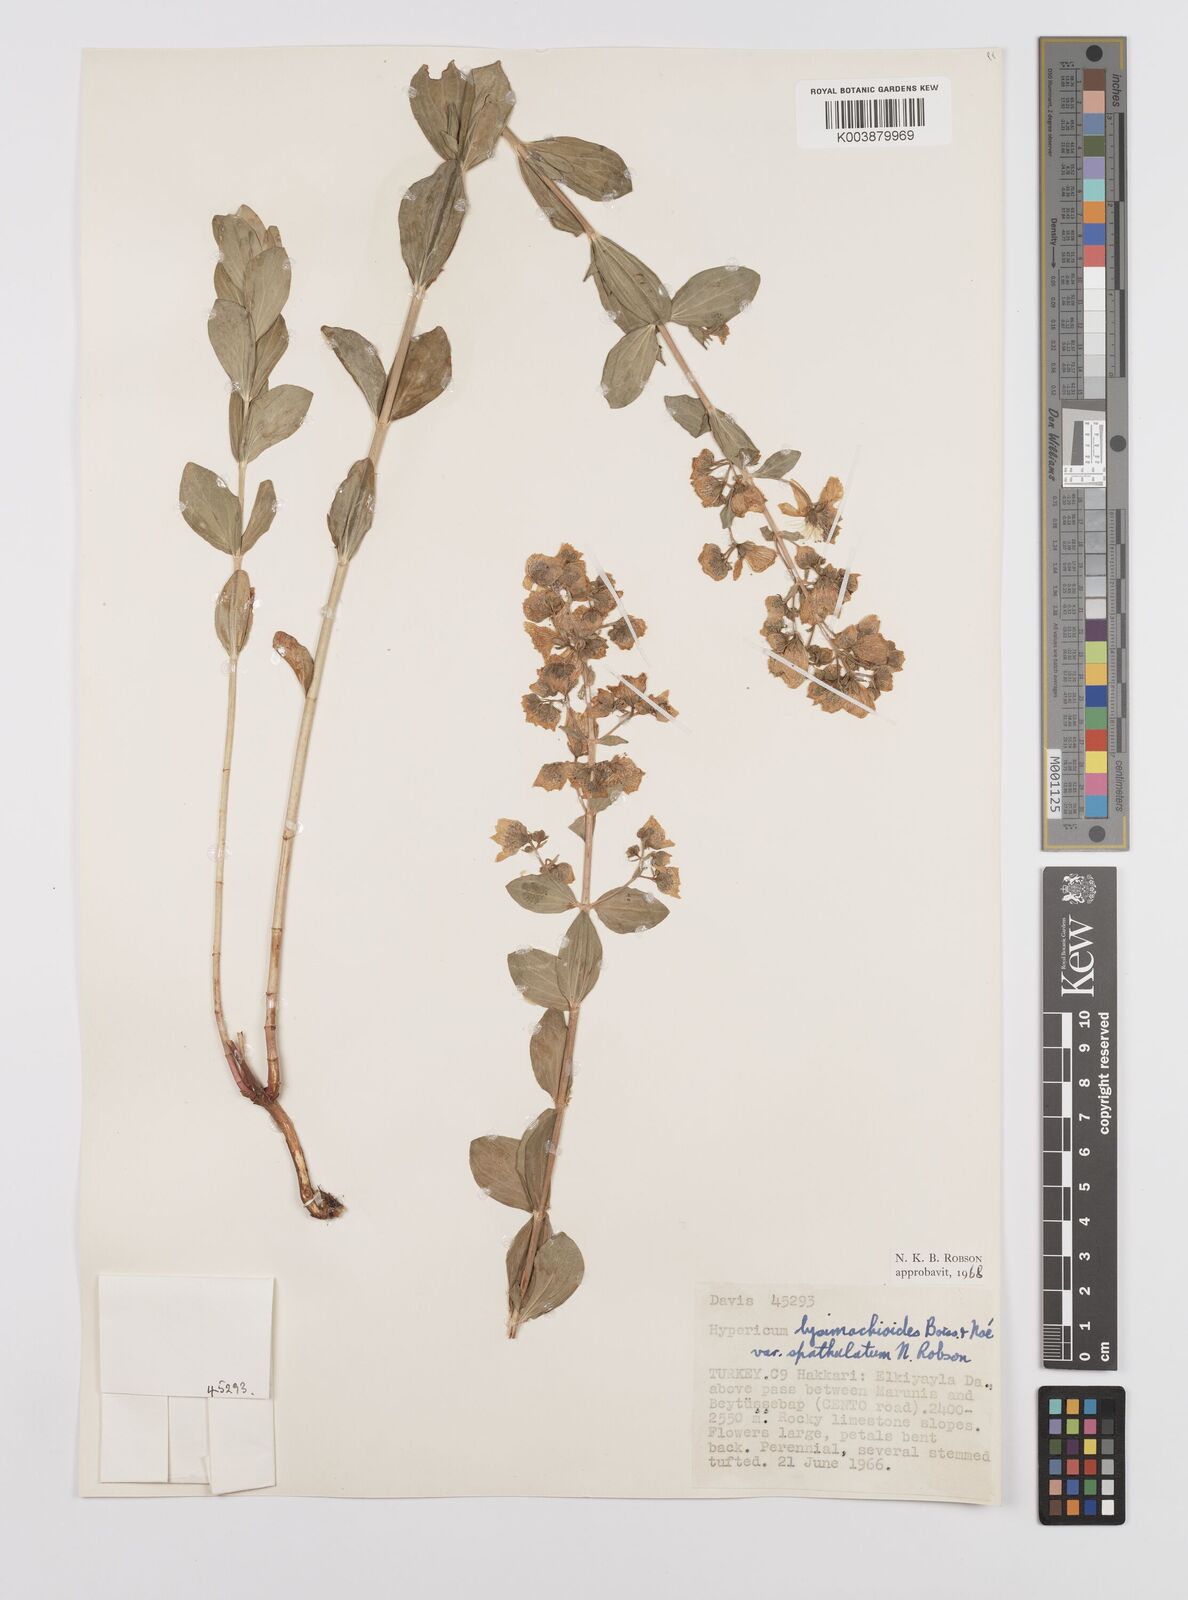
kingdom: Plantae
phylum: Tracheophyta
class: Magnoliopsida
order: Malpighiales
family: Hypericaceae
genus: Hypericum
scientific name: Hypericum lysimachioides
